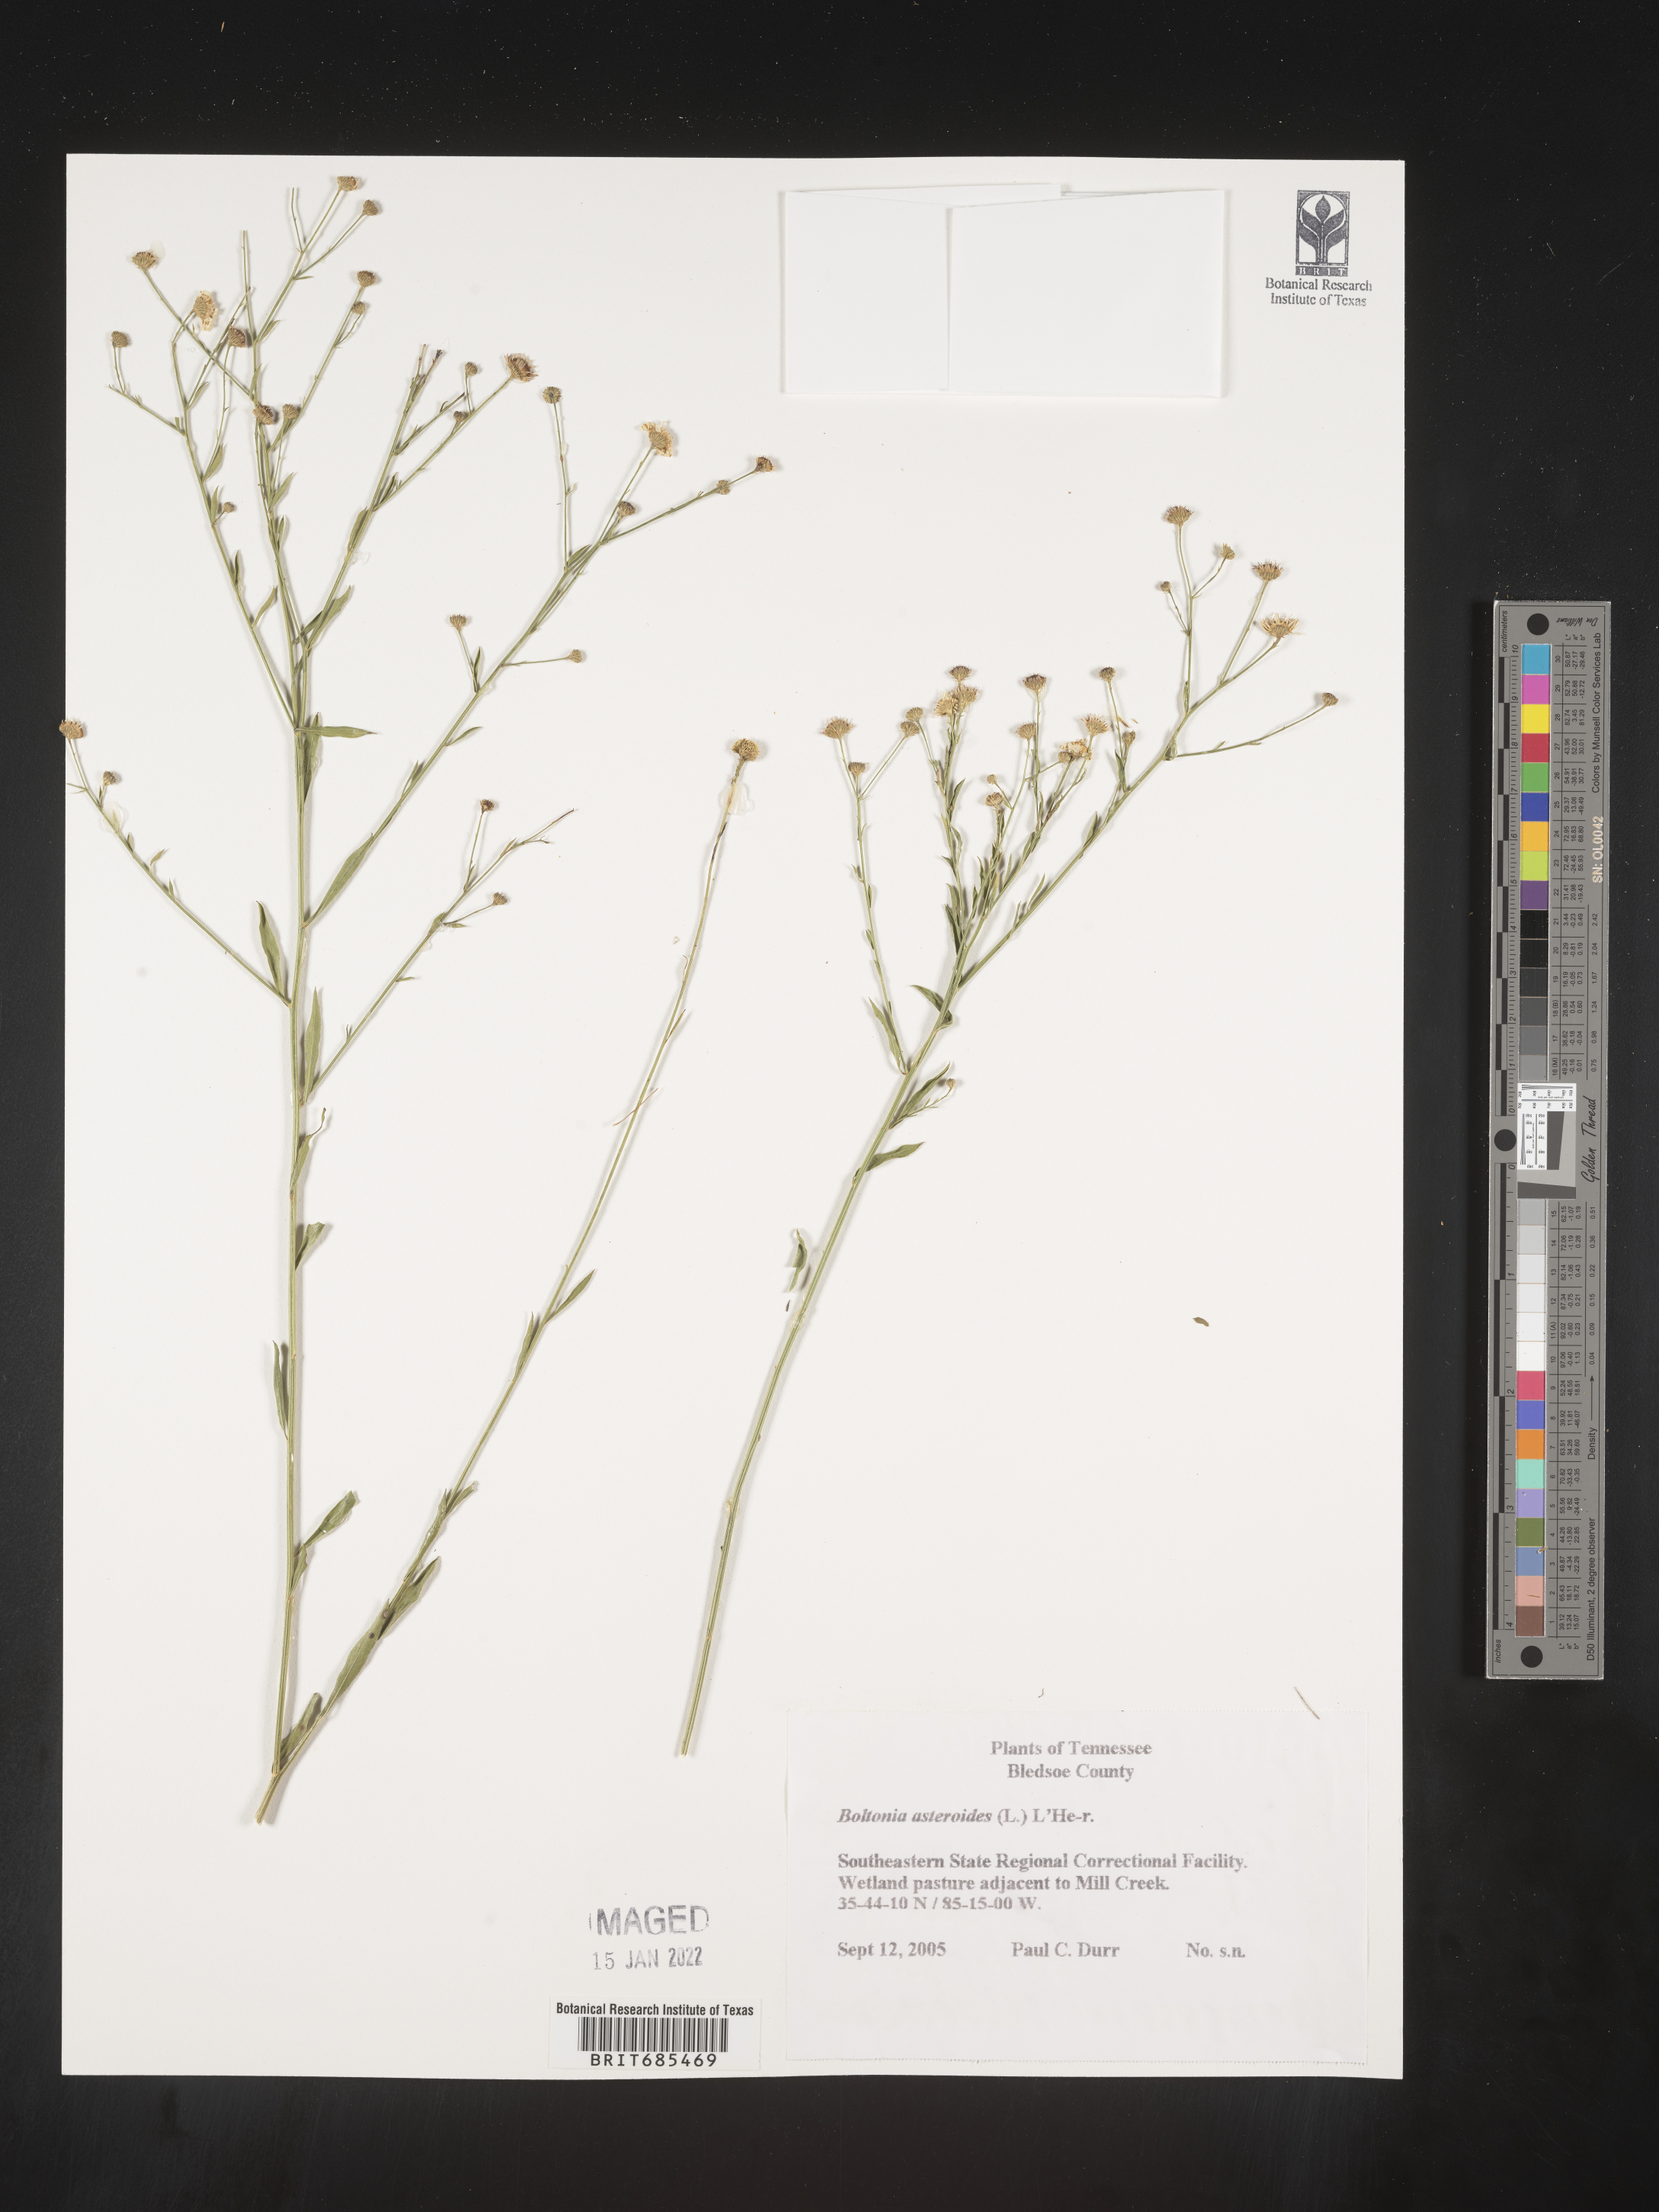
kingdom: Plantae
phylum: Tracheophyta
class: Magnoliopsida
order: Asterales
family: Asteraceae
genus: Boltonia
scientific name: Boltonia asteroides
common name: False chamomile
